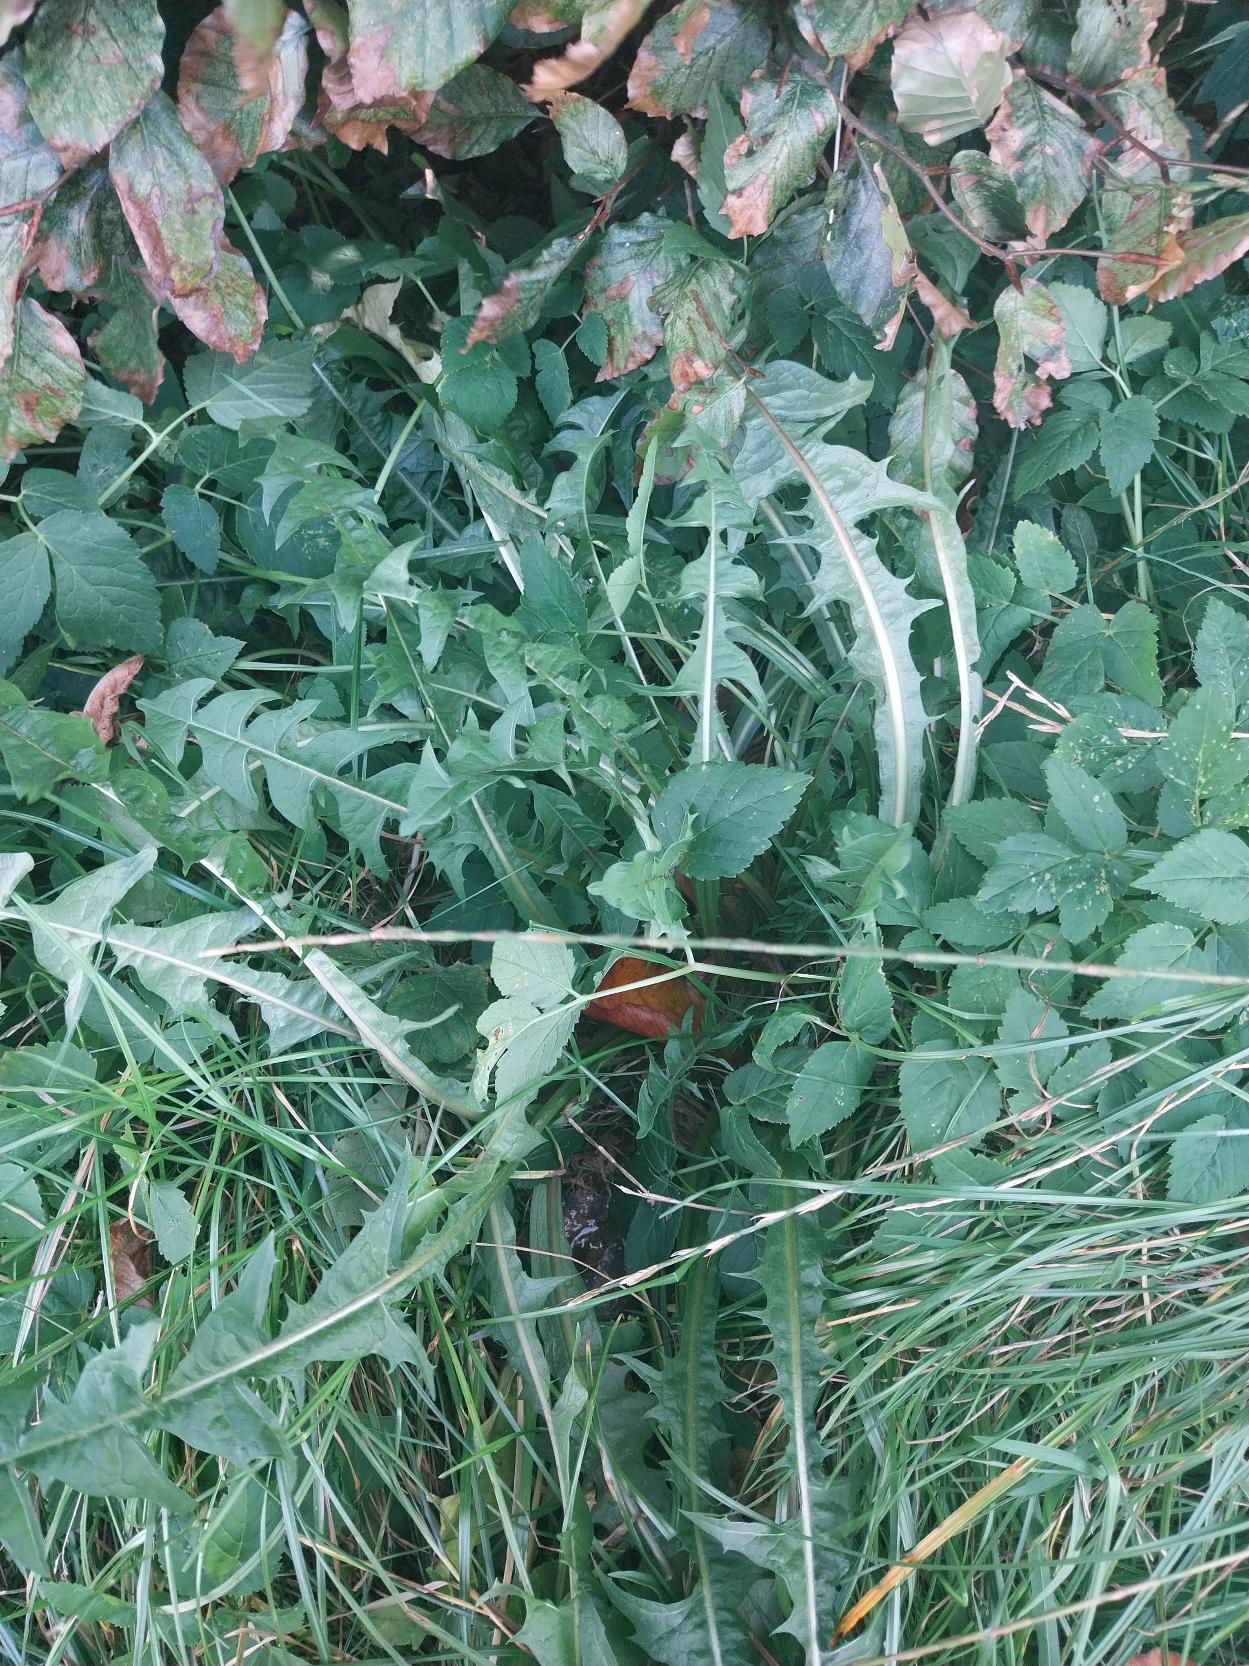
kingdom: Plantae
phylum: Tracheophyta
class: Magnoliopsida
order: Asterales
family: Asteraceae
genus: Taraxacum
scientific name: Taraxacum
